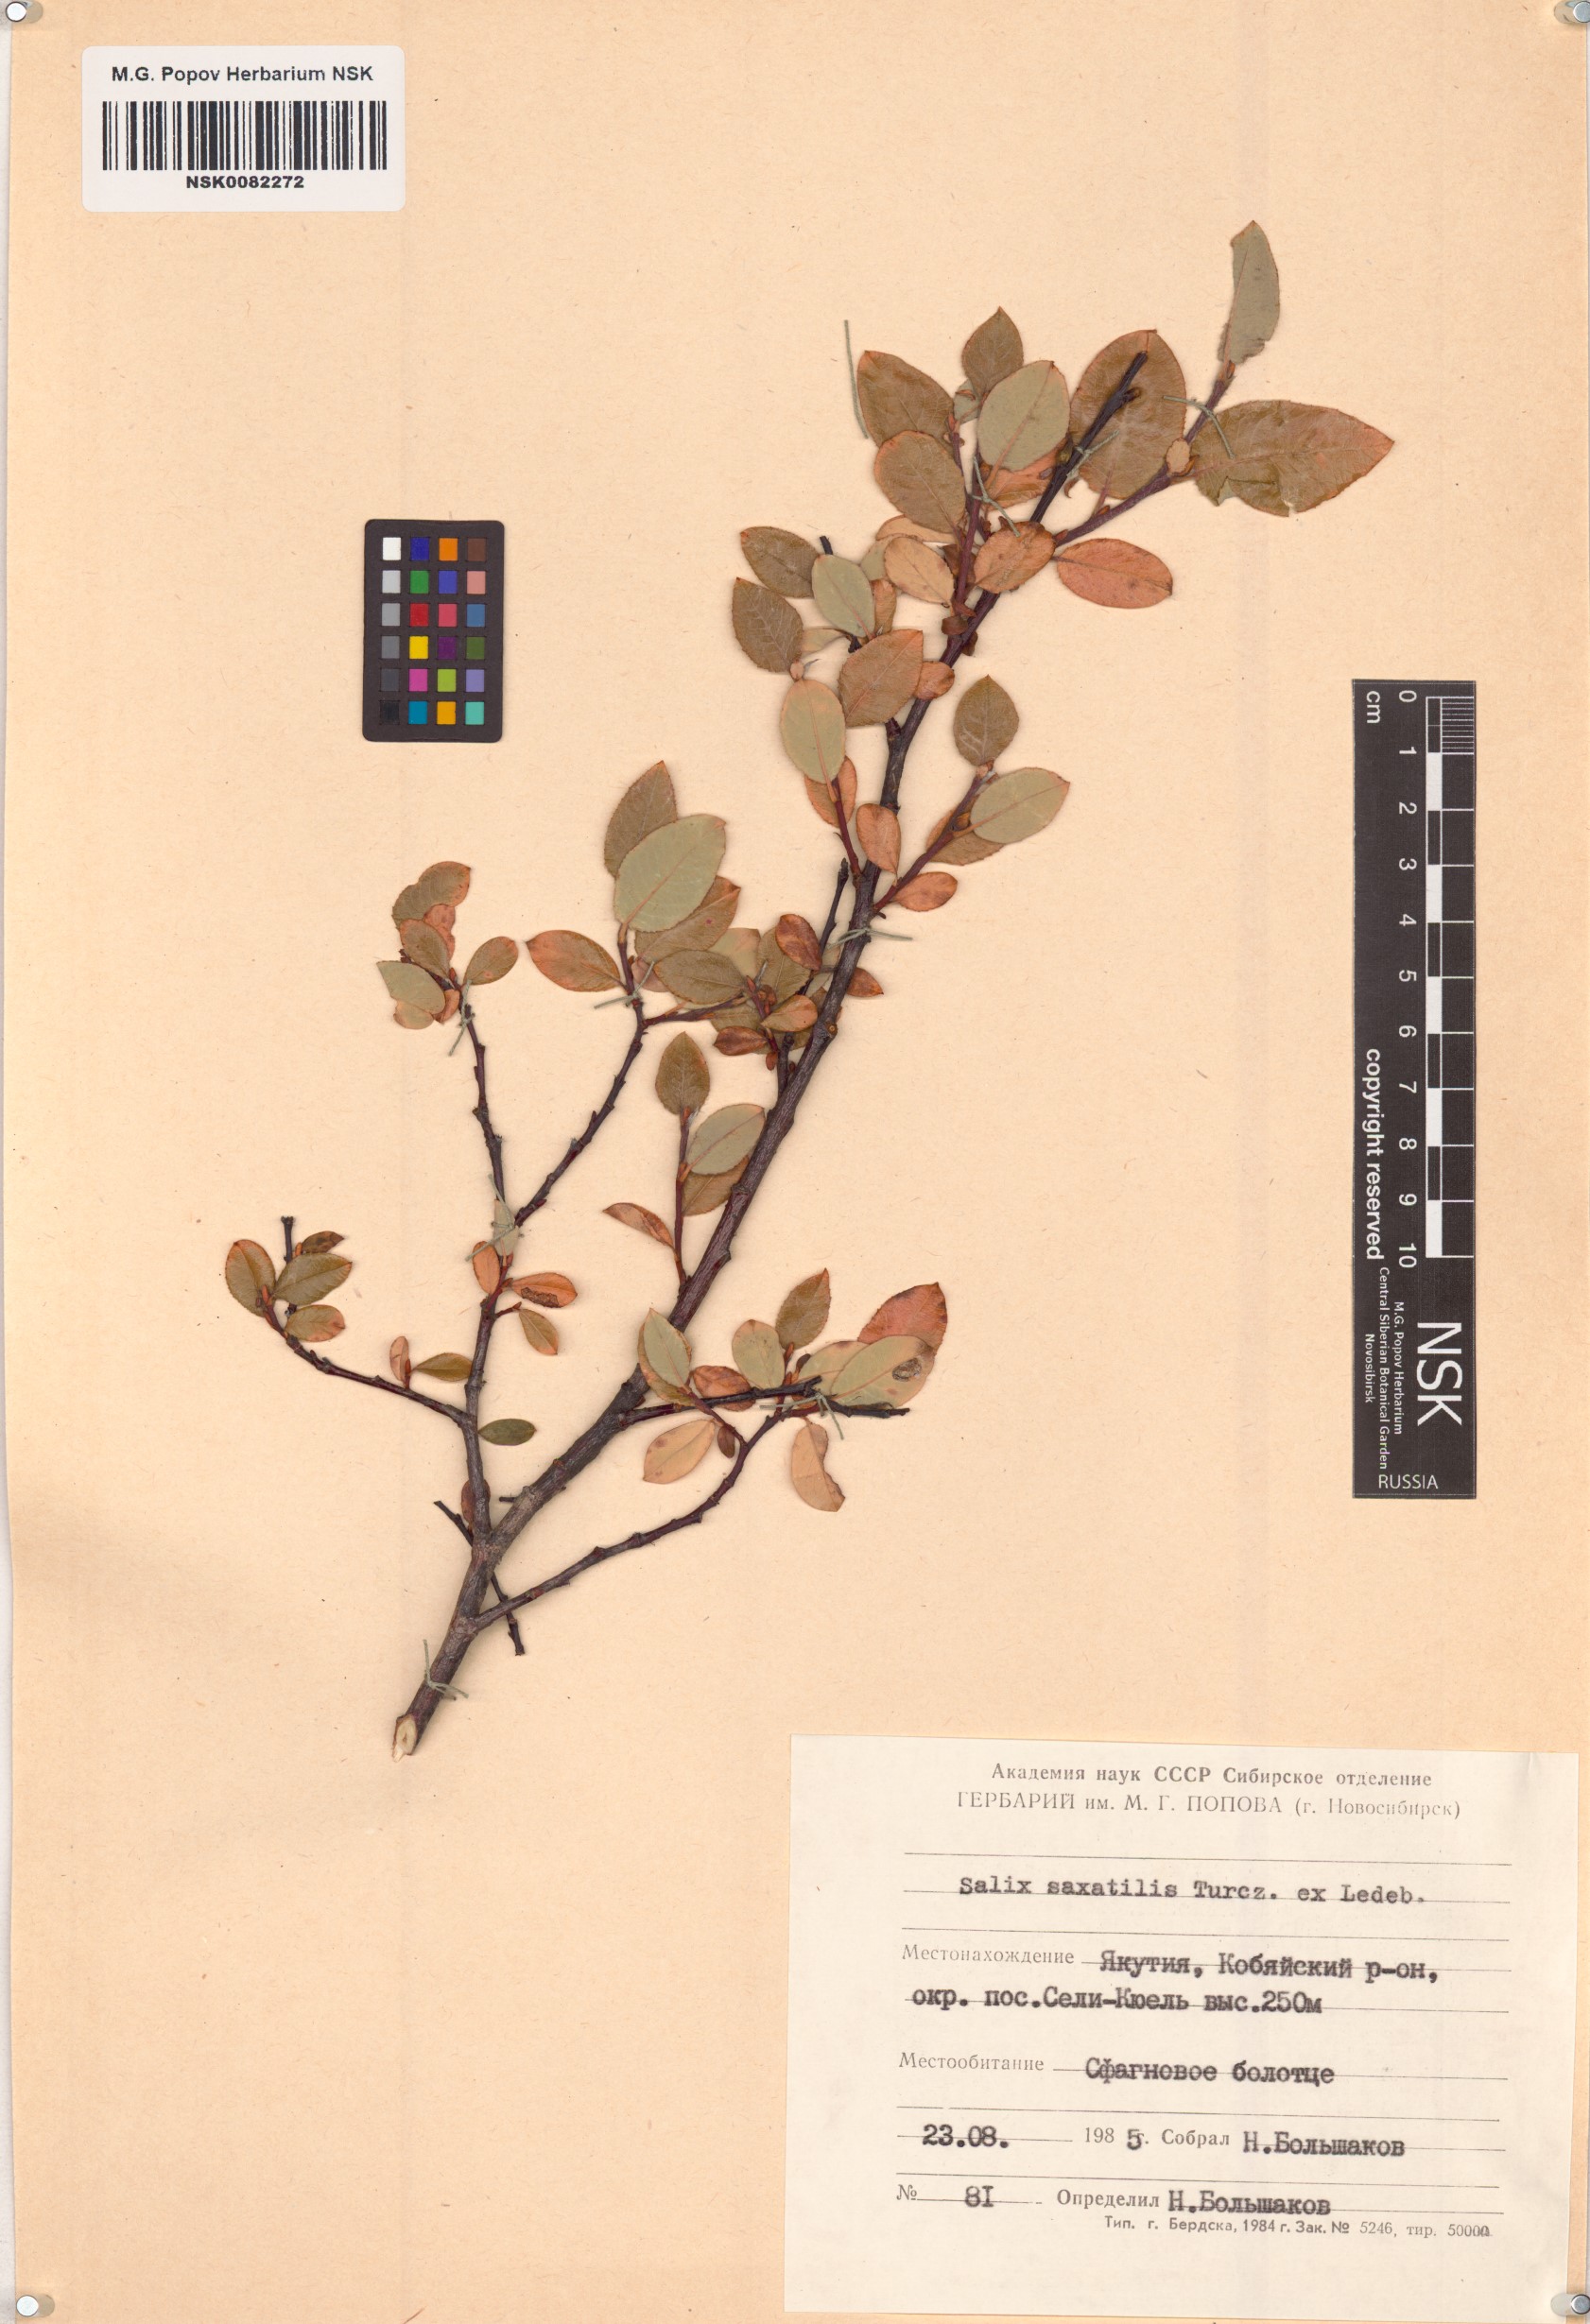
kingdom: Plantae
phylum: Tracheophyta
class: Magnoliopsida
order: Malpighiales
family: Salicaceae
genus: Salix
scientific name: Salix saxatilis
